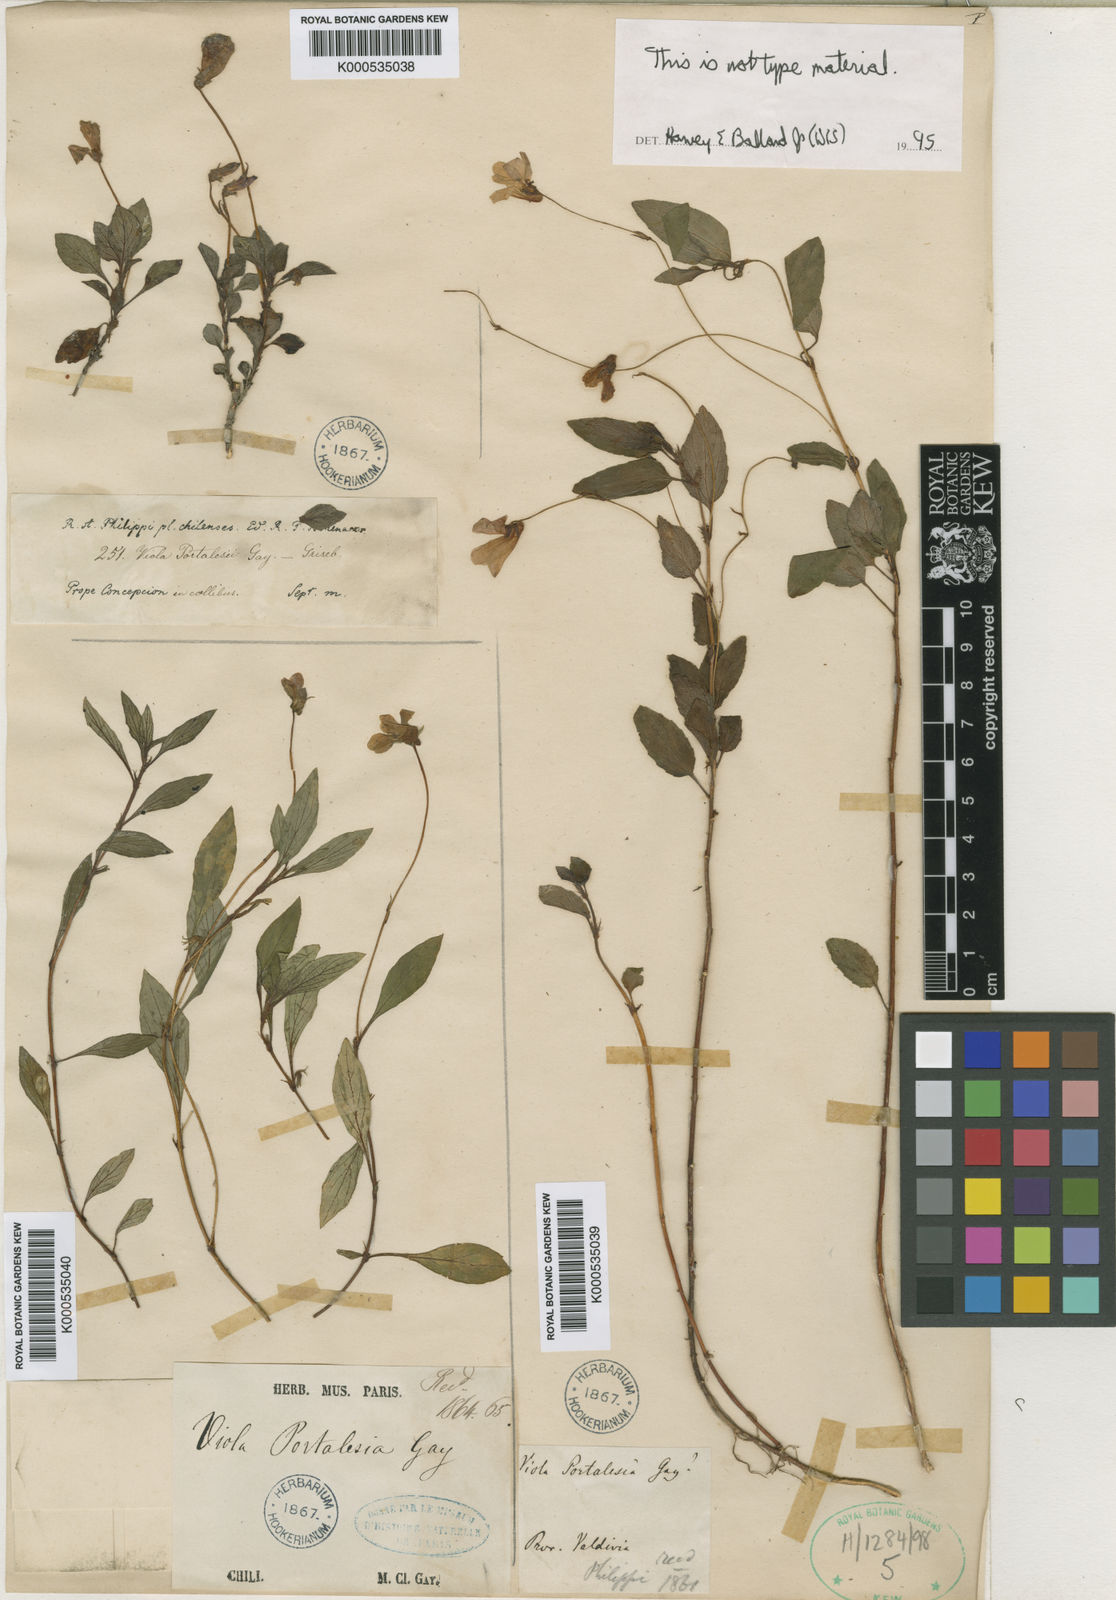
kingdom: Plantae
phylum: Tracheophyta
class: Magnoliopsida
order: Malpighiales
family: Violaceae
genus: Viola
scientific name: Viola portalesia
